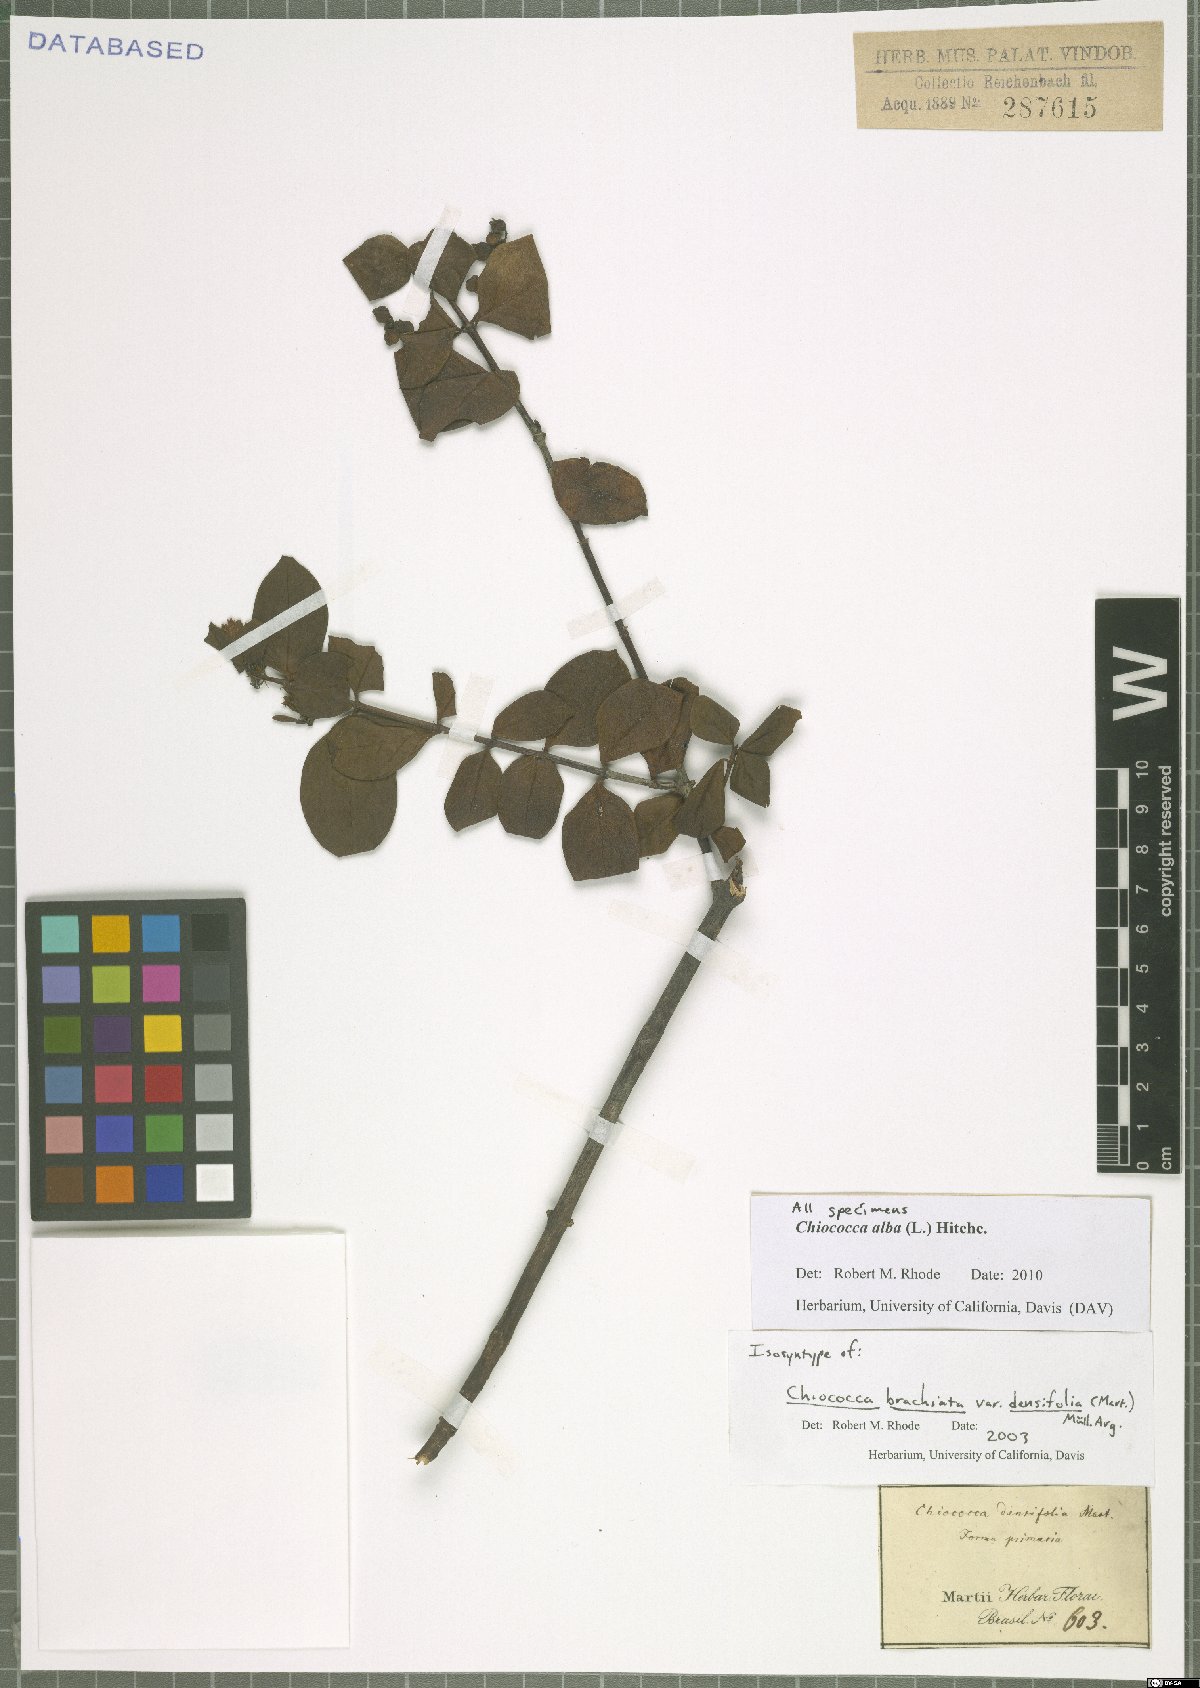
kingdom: Plantae
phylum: Tracheophyta
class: Magnoliopsida
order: Gentianales
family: Rubiaceae
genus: Chiococca
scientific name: Chiococca alba
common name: Snowberry
